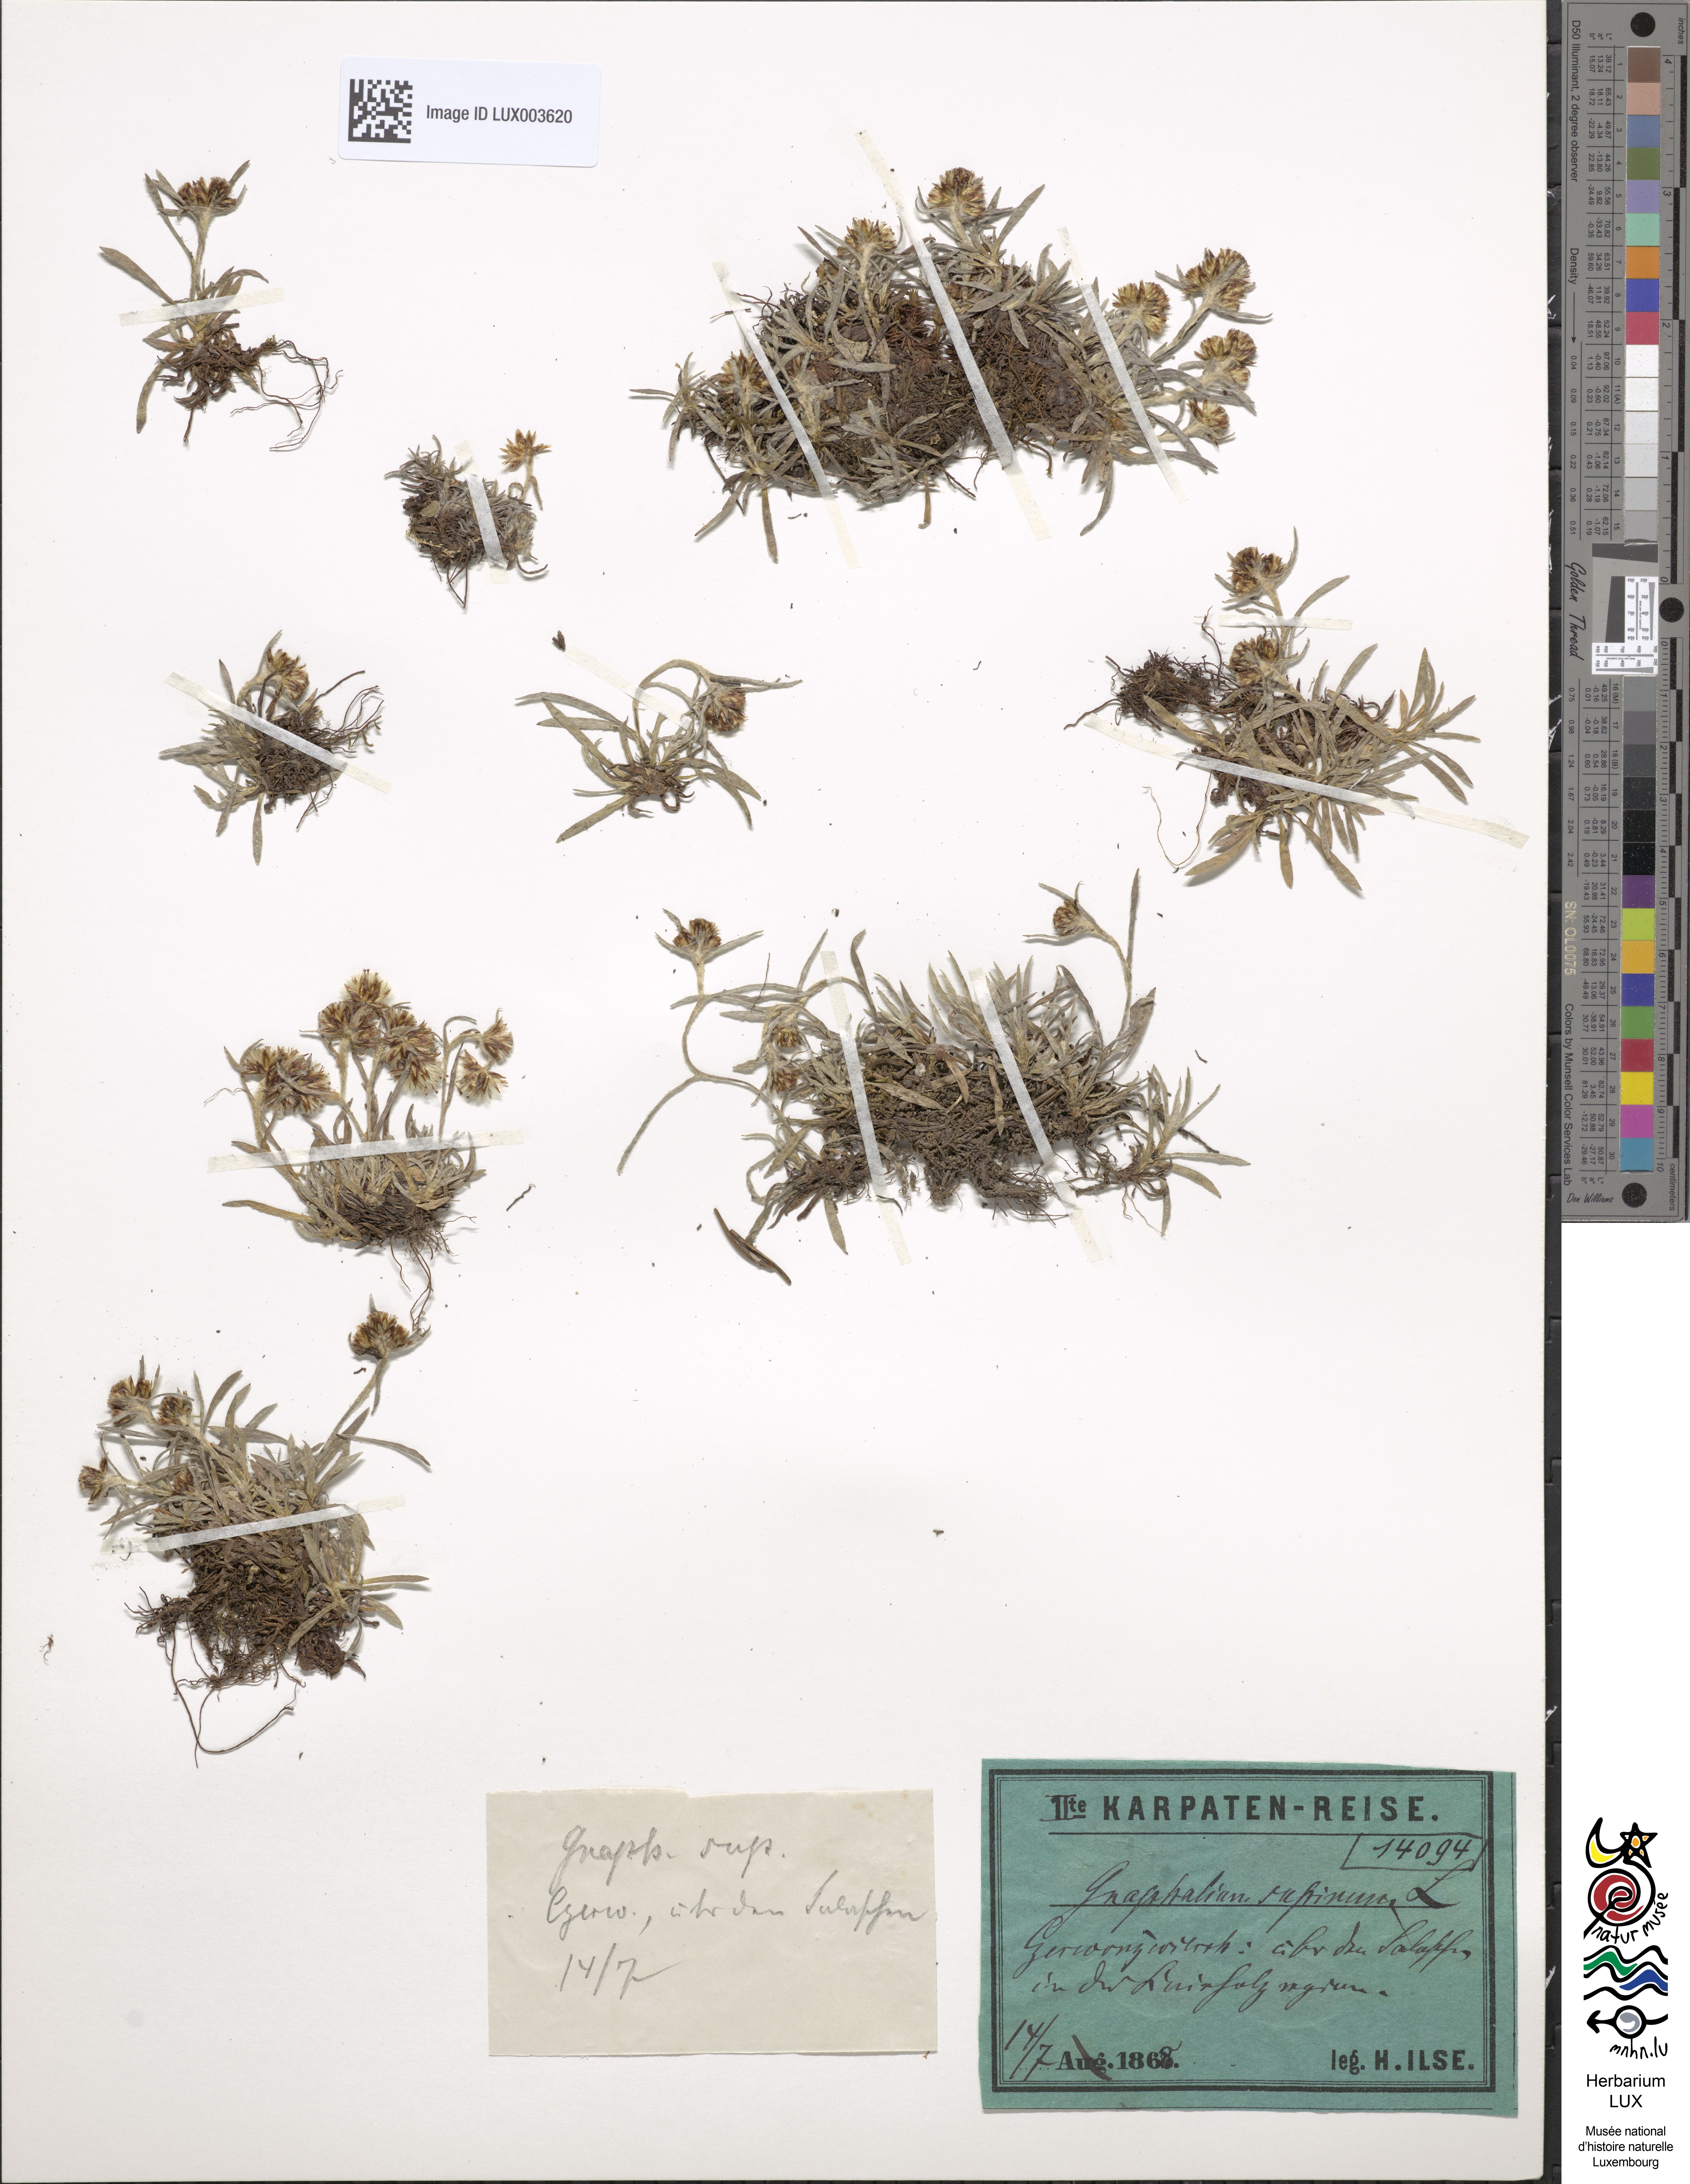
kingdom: Plantae
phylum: Tracheophyta
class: Magnoliopsida
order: Asterales
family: Asteraceae
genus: Omalotheca
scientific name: Omalotheca supina
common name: Alpine arctic-cudweed
